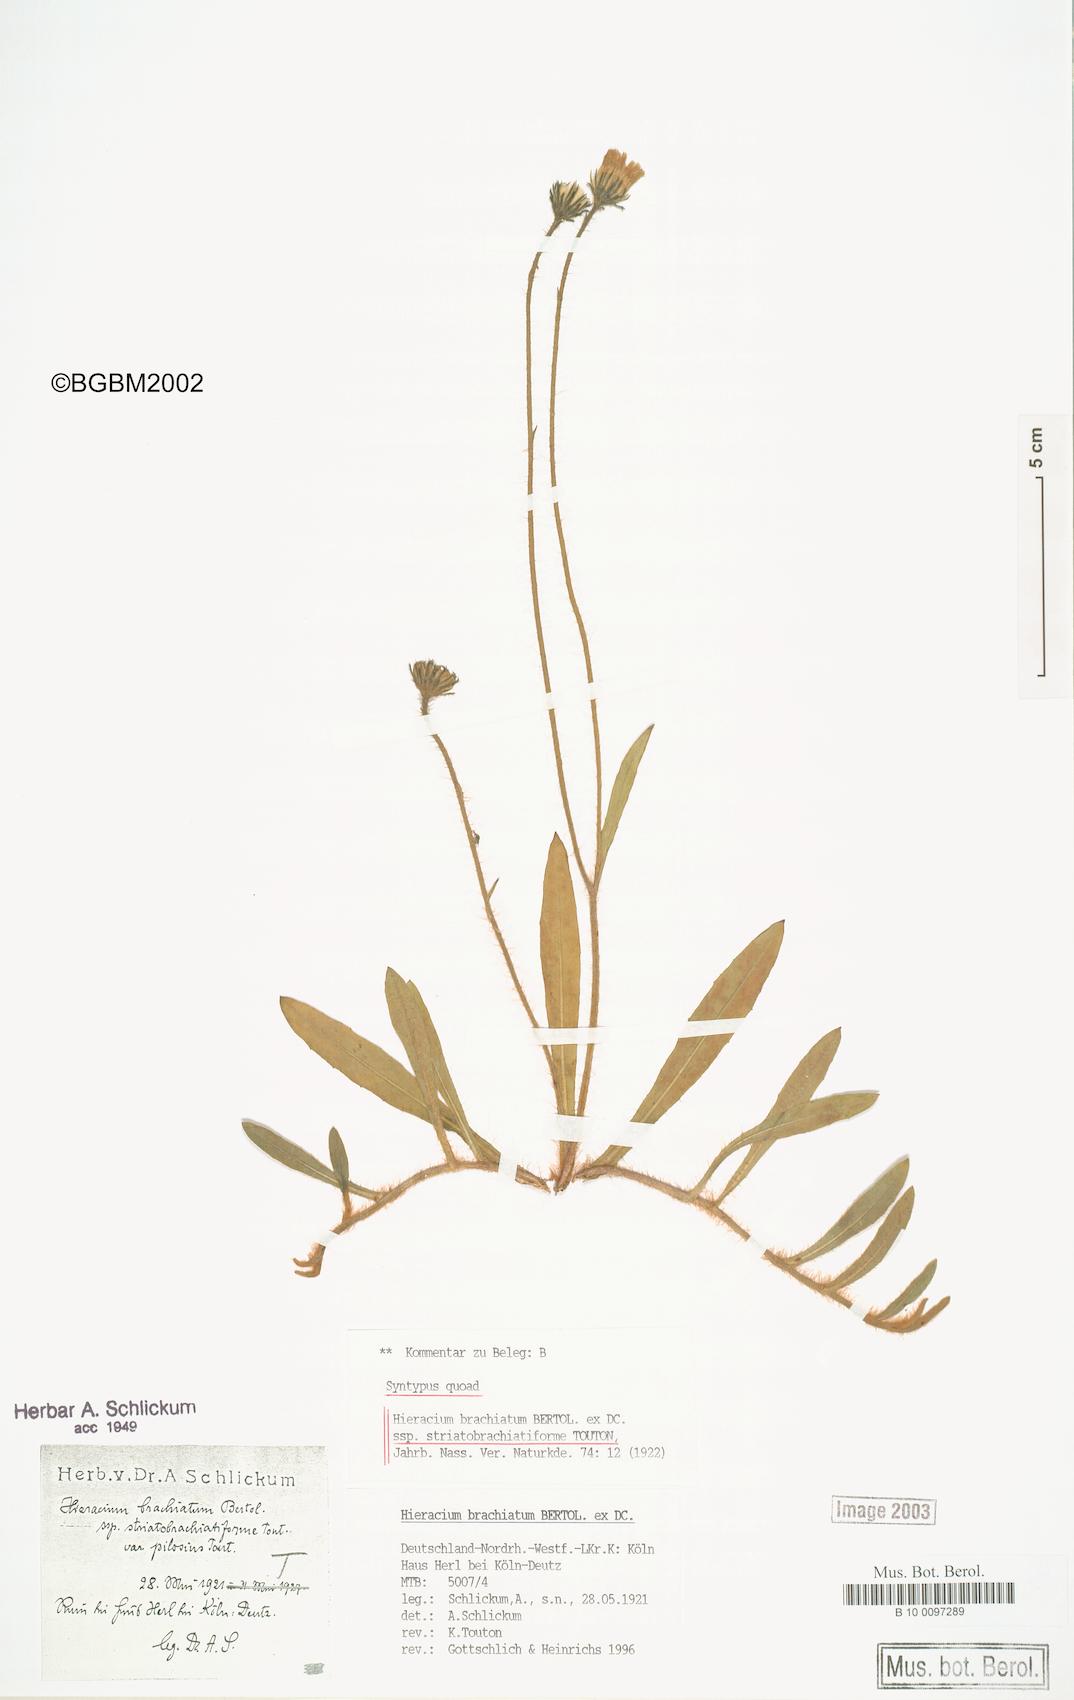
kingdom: Plantae
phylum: Tracheophyta
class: Magnoliopsida
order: Asterales
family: Asteraceae
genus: Pilosella
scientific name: Pilosella acutifolia
